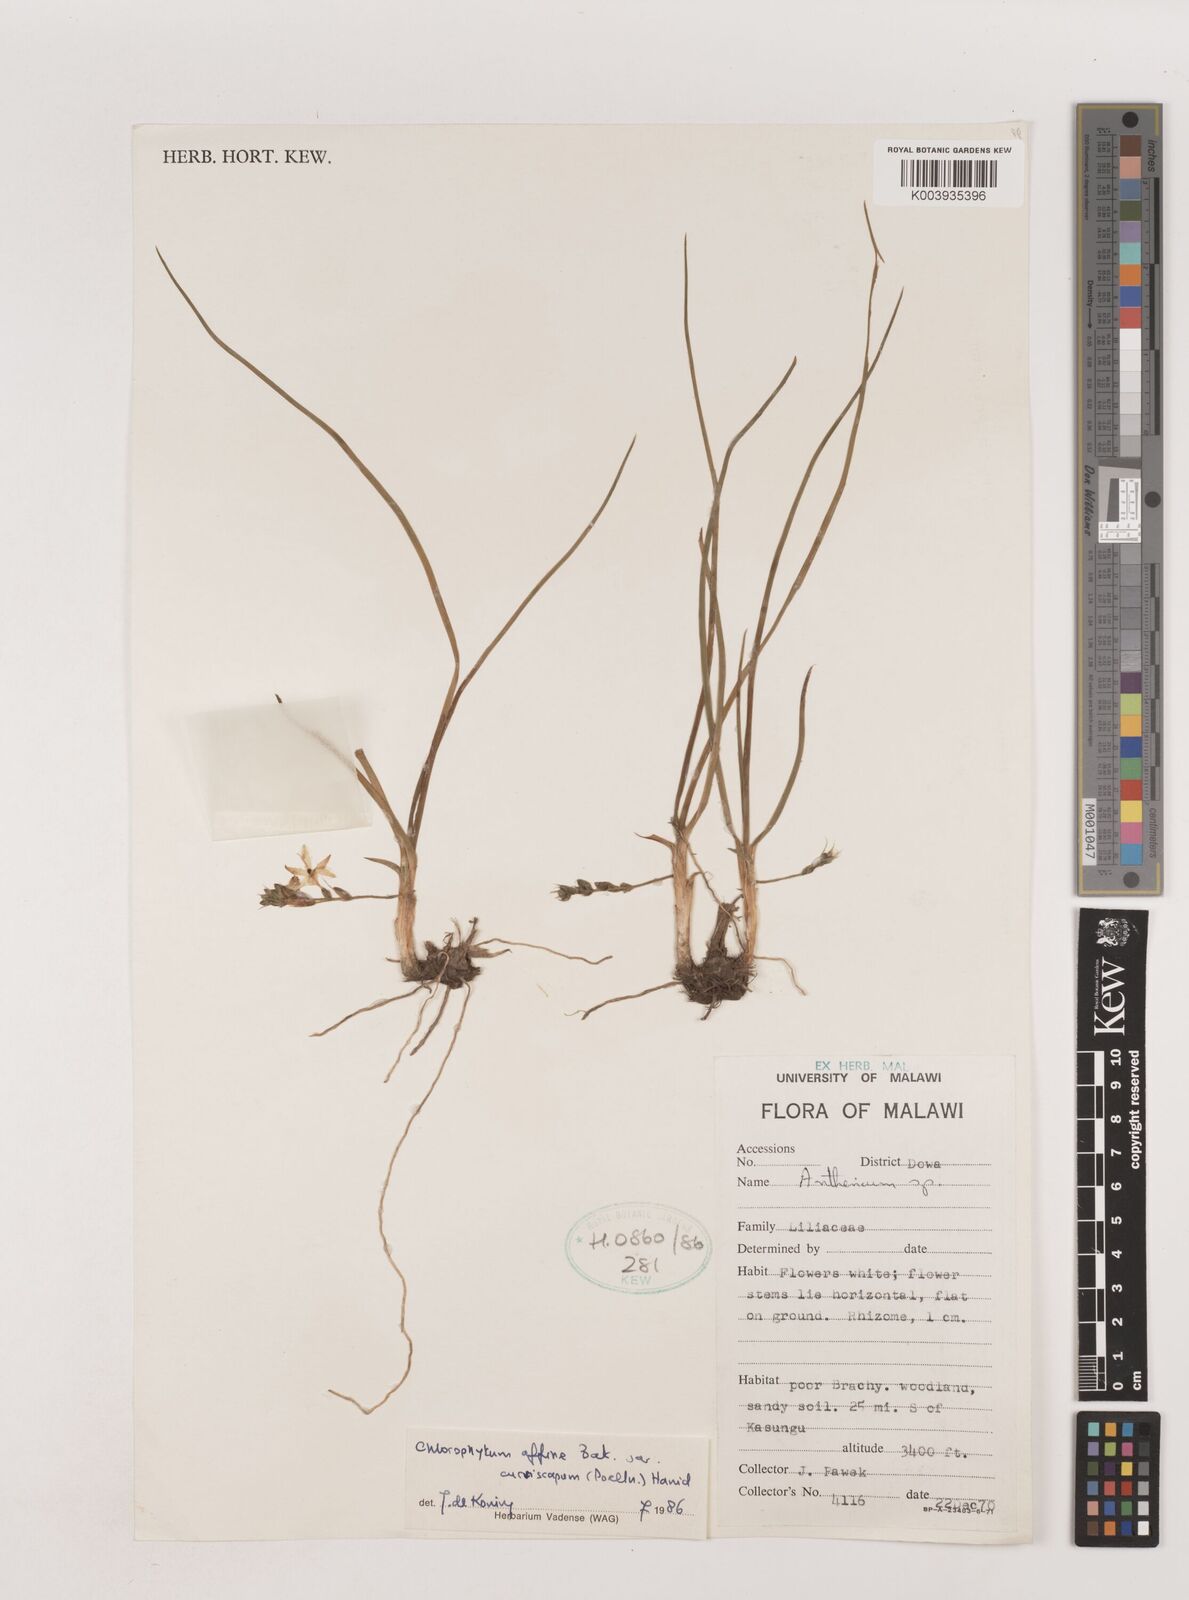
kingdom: Plantae
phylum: Tracheophyta
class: Liliopsida
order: Asparagales
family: Asparagaceae
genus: Chlorophytum
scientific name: Chlorophytum tordense
